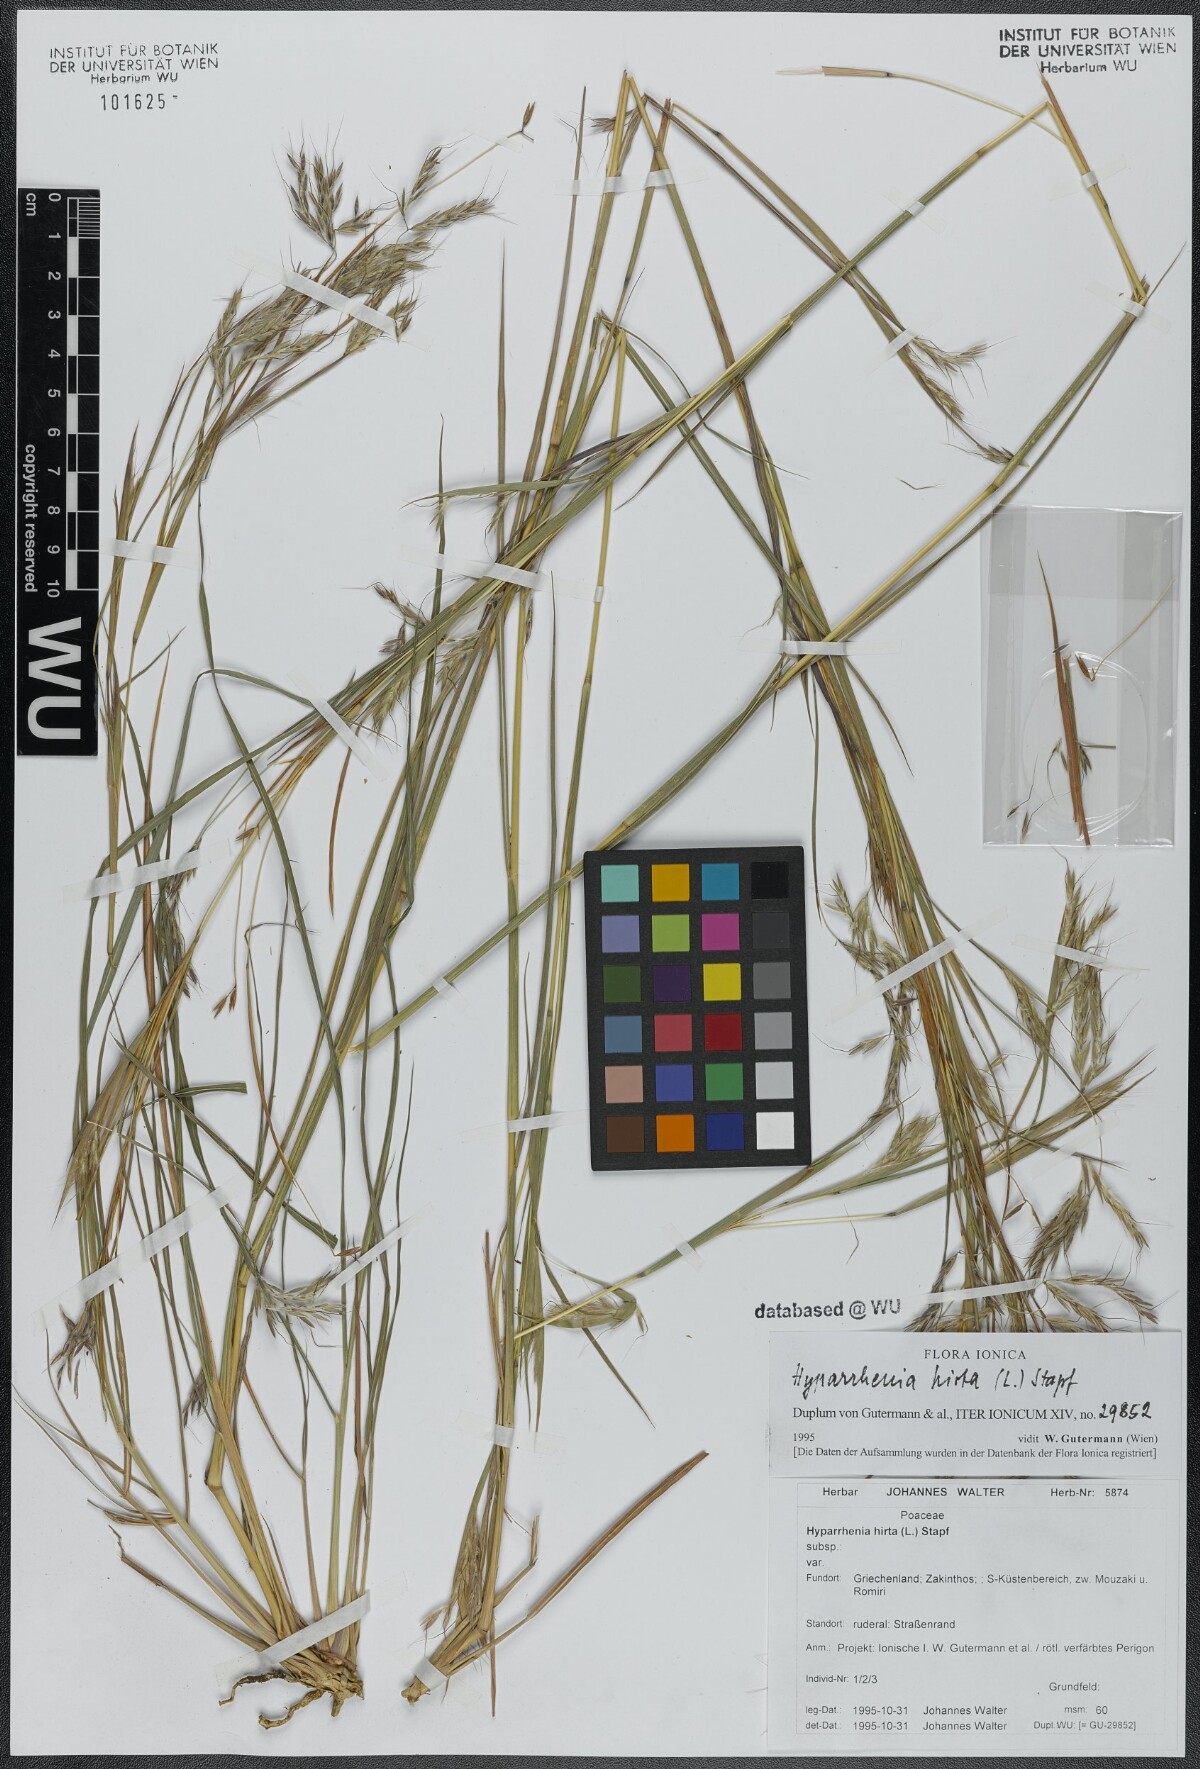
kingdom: Plantae
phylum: Tracheophyta
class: Liliopsida
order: Poales
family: Poaceae
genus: Hyparrhenia
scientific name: Hyparrhenia hirta
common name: Thatching grass
